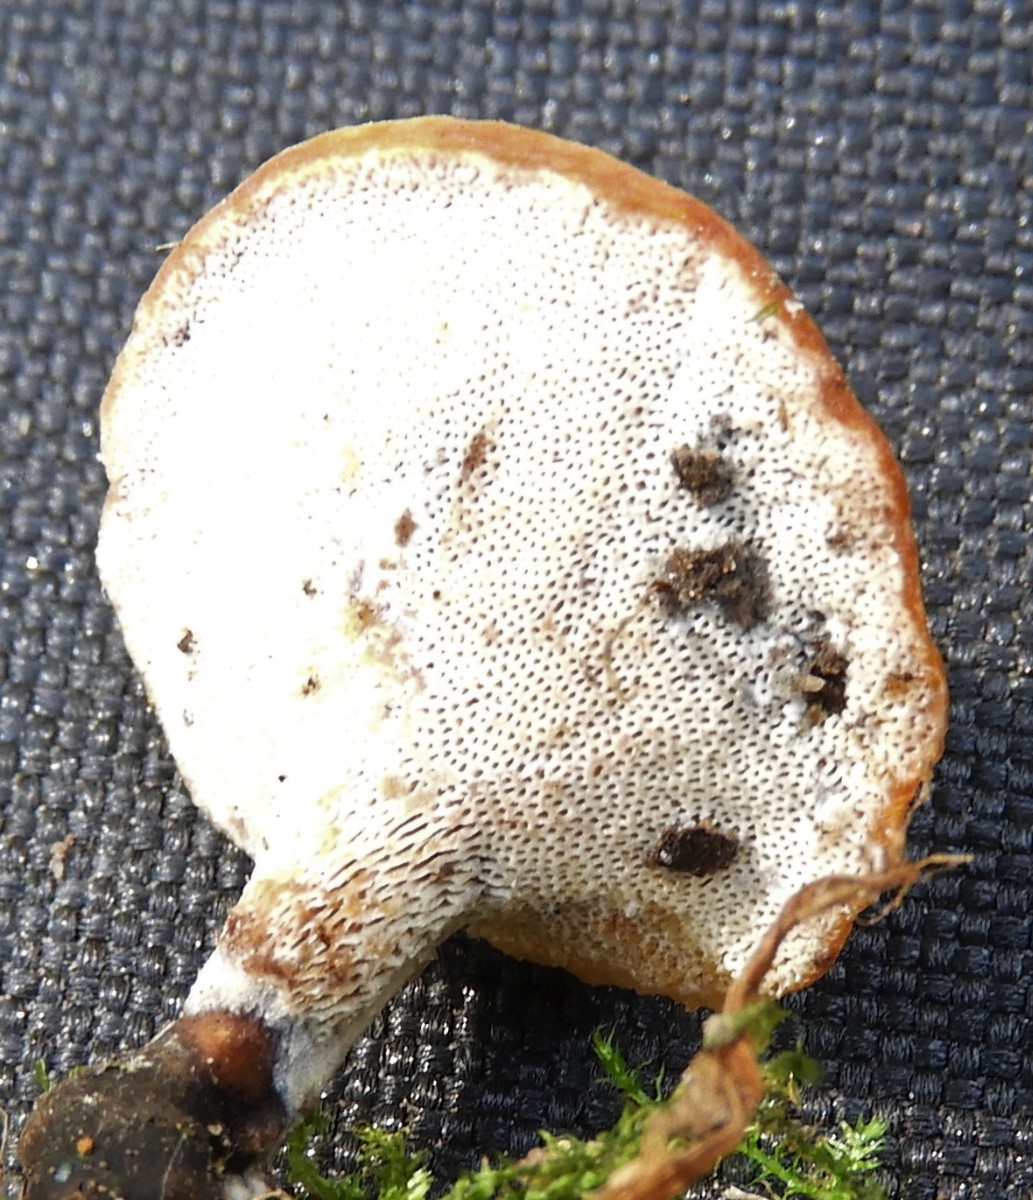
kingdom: Fungi
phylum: Basidiomycota
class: Agaricomycetes
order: Polyporales
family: Polyporaceae
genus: Cerioporus
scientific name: Cerioporus varius
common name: foranderlig stilkporesvamp
